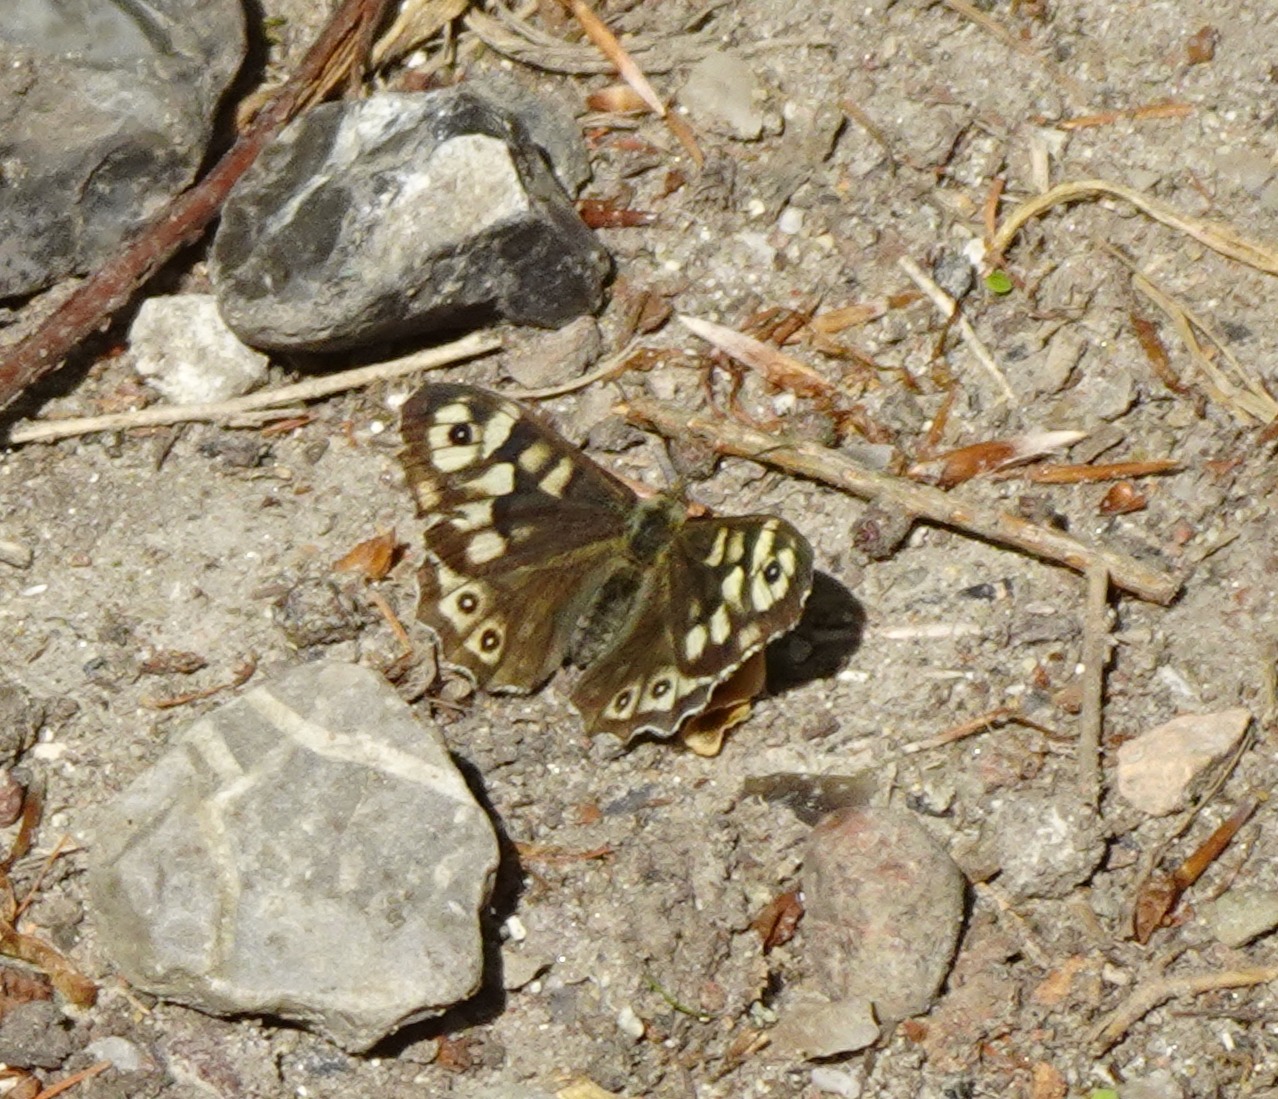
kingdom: Animalia
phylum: Arthropoda
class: Insecta
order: Lepidoptera
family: Nymphalidae
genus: Pararge
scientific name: Pararge aegeria
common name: Skovrandøje
